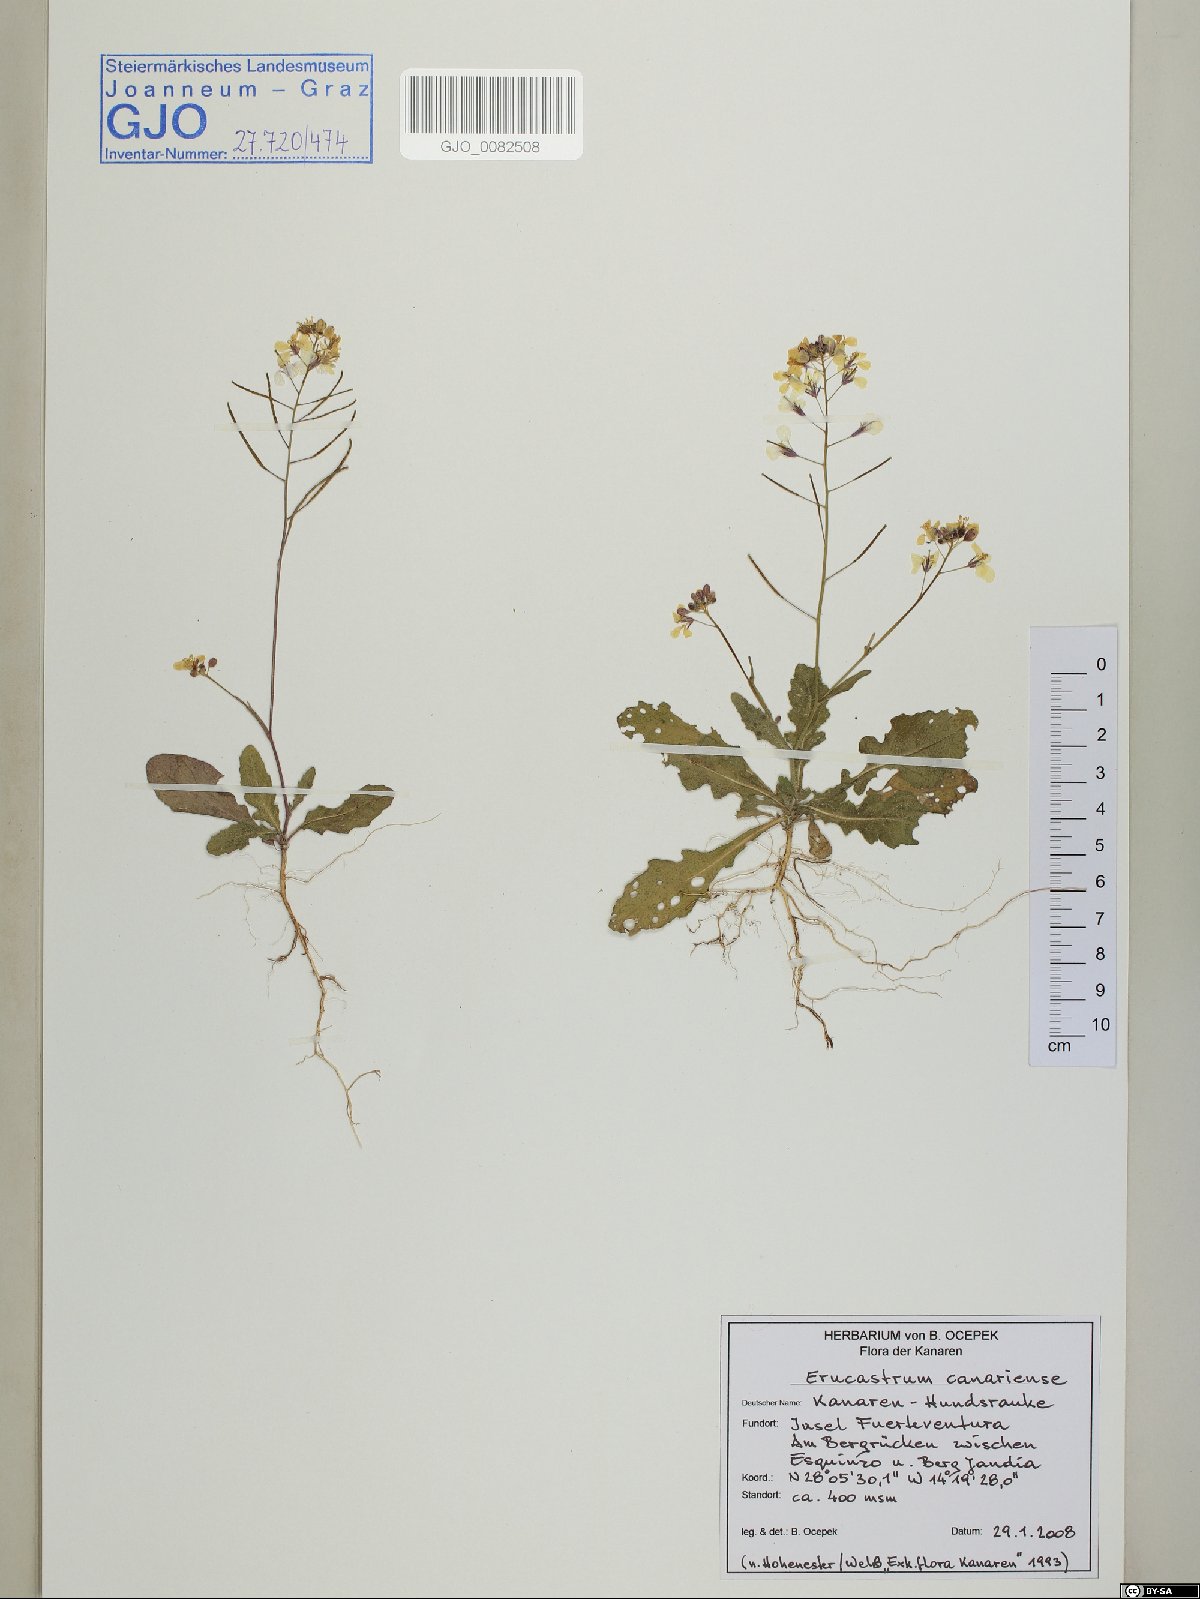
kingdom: Plantae
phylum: Tracheophyta
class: Magnoliopsida
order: Brassicales
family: Brassicaceae
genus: Erucastrum
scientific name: Erucastrum canariense
